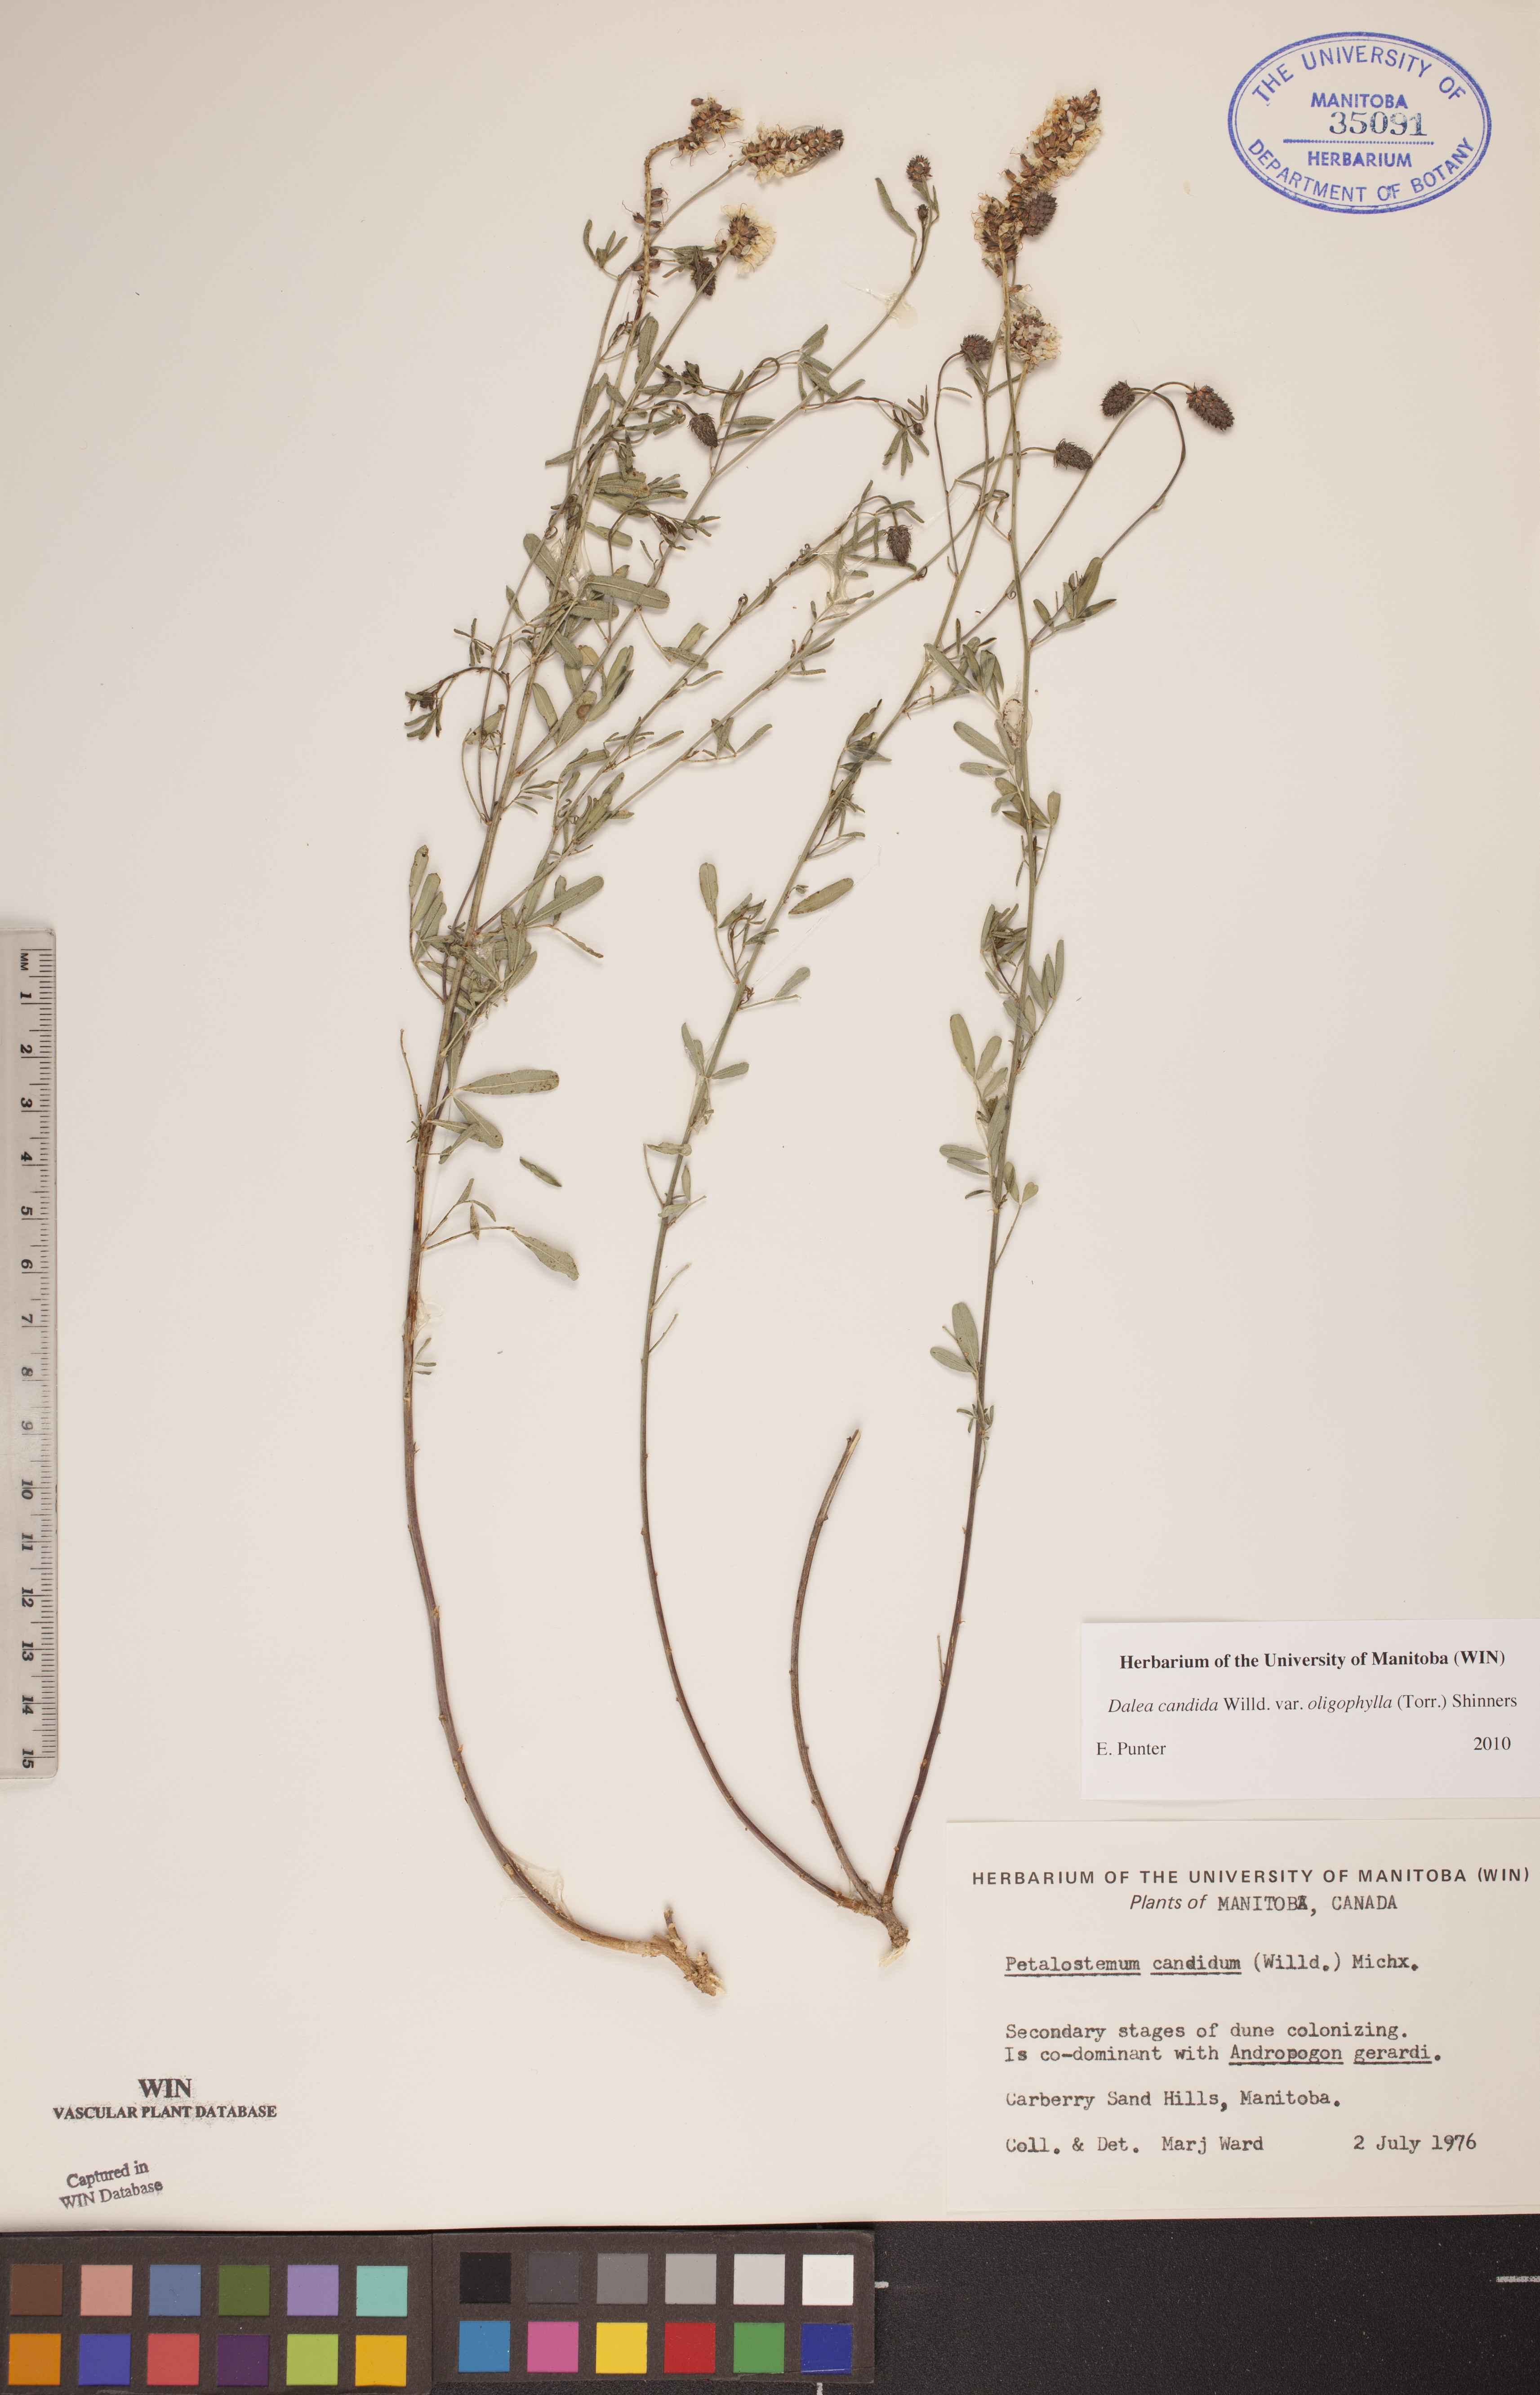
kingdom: Plantae
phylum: Tracheophyta
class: Magnoliopsida
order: Fabales
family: Fabaceae
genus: Dalea
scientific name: Dalea candida
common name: White prairie-clover
